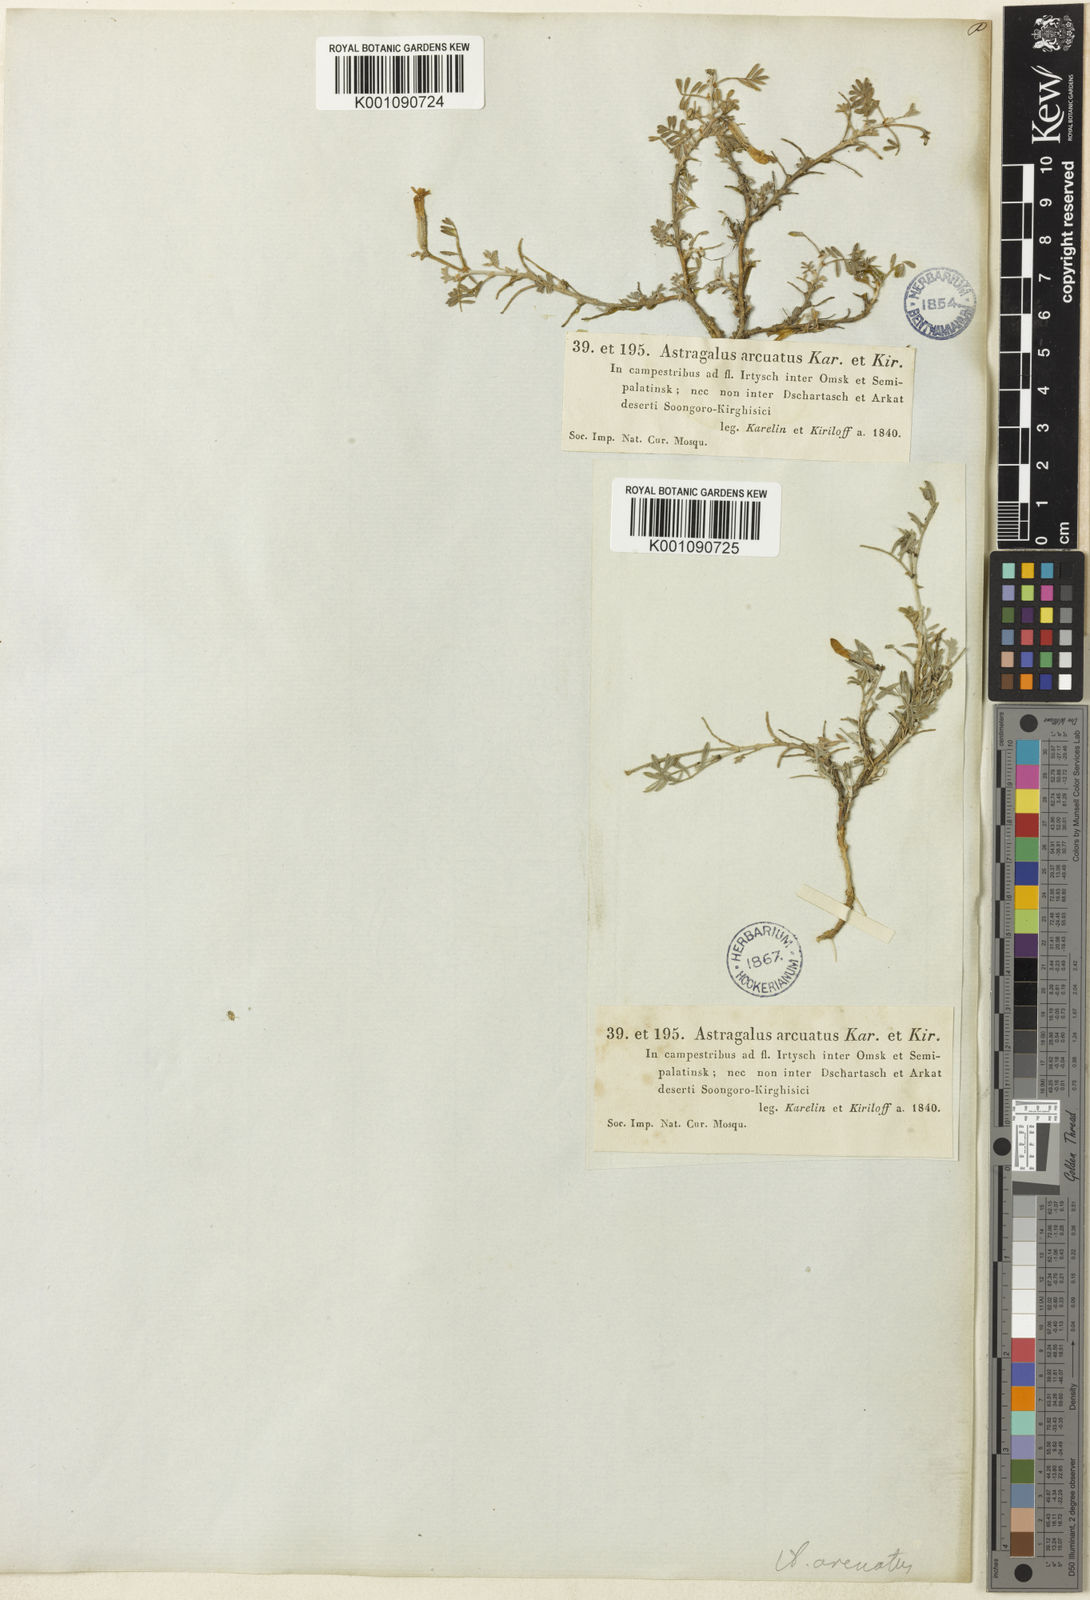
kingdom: Plantae
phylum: Tracheophyta
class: Magnoliopsida
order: Fabales
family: Fabaceae
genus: Astragalus
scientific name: Astragalus
